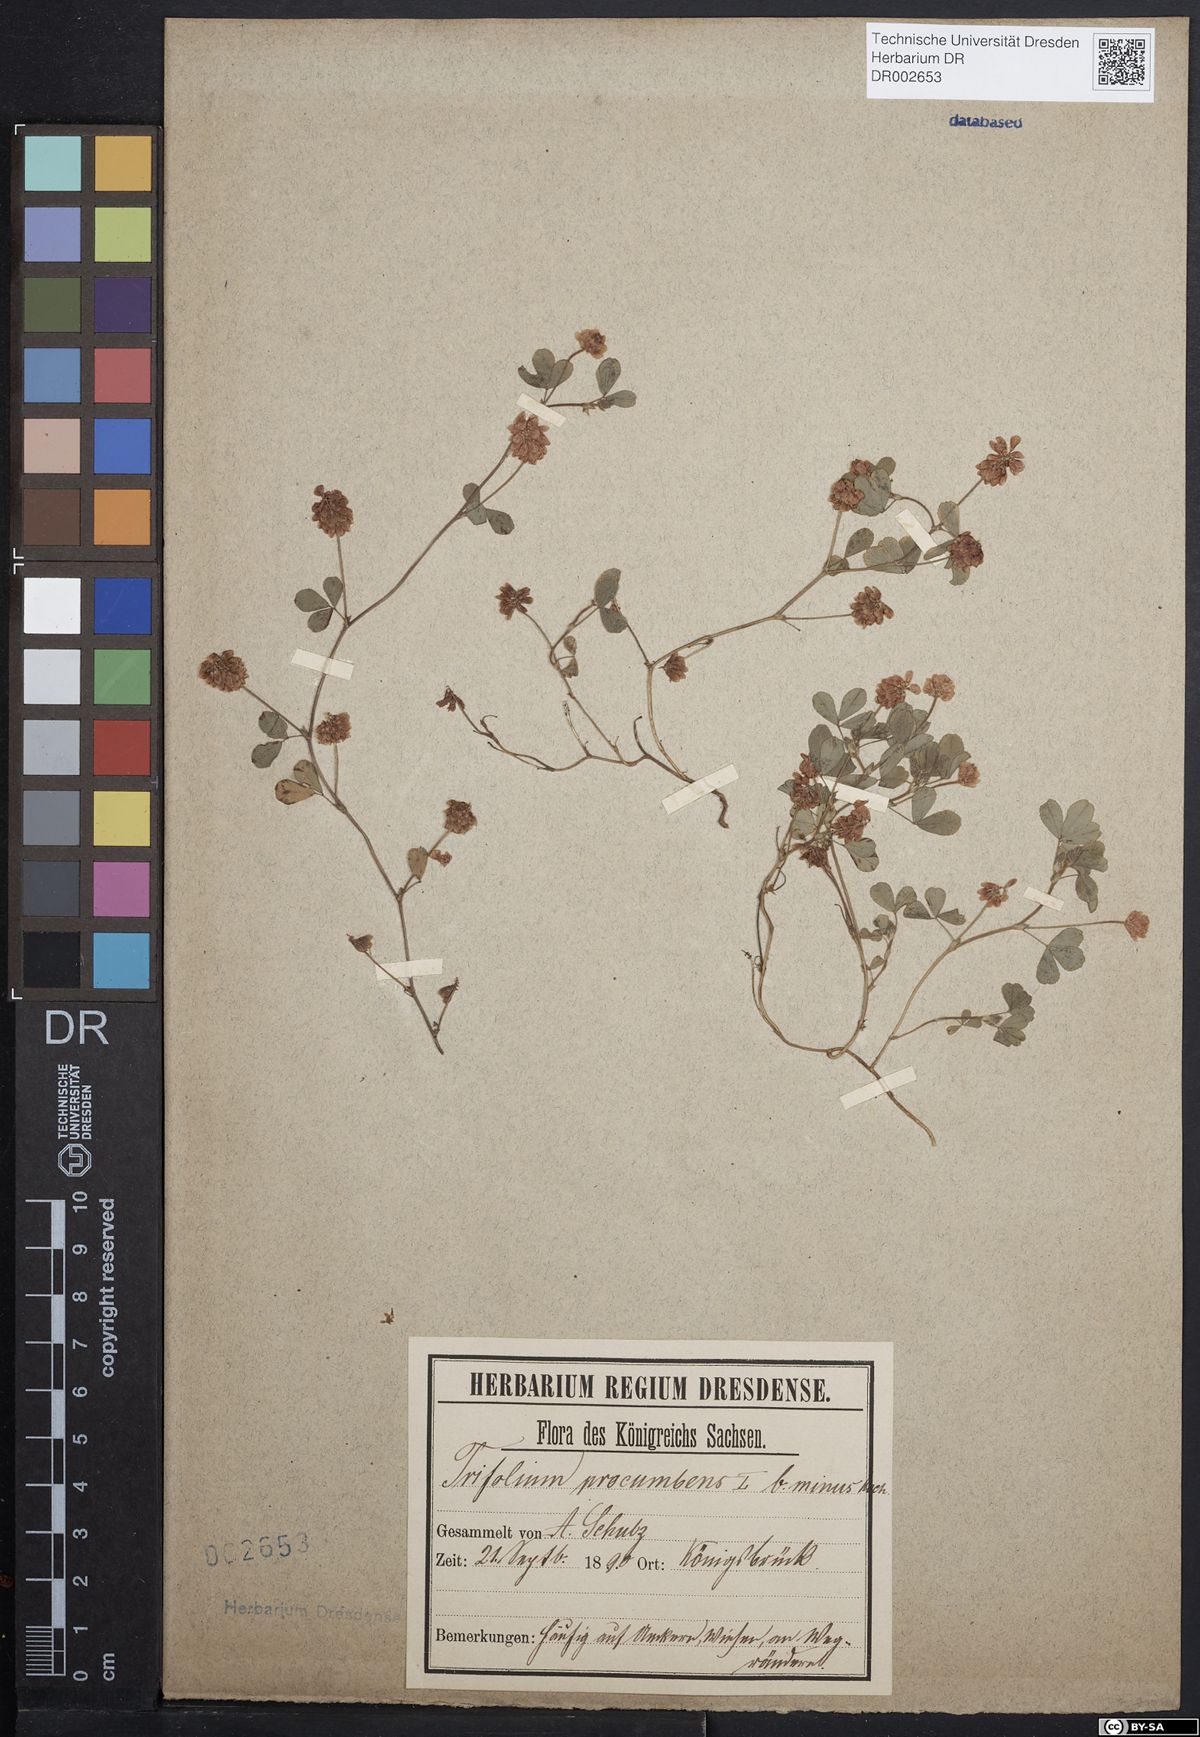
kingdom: Plantae
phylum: Tracheophyta
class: Magnoliopsida
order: Fabales
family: Fabaceae
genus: Trifolium
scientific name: Trifolium campestre
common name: Field clover
